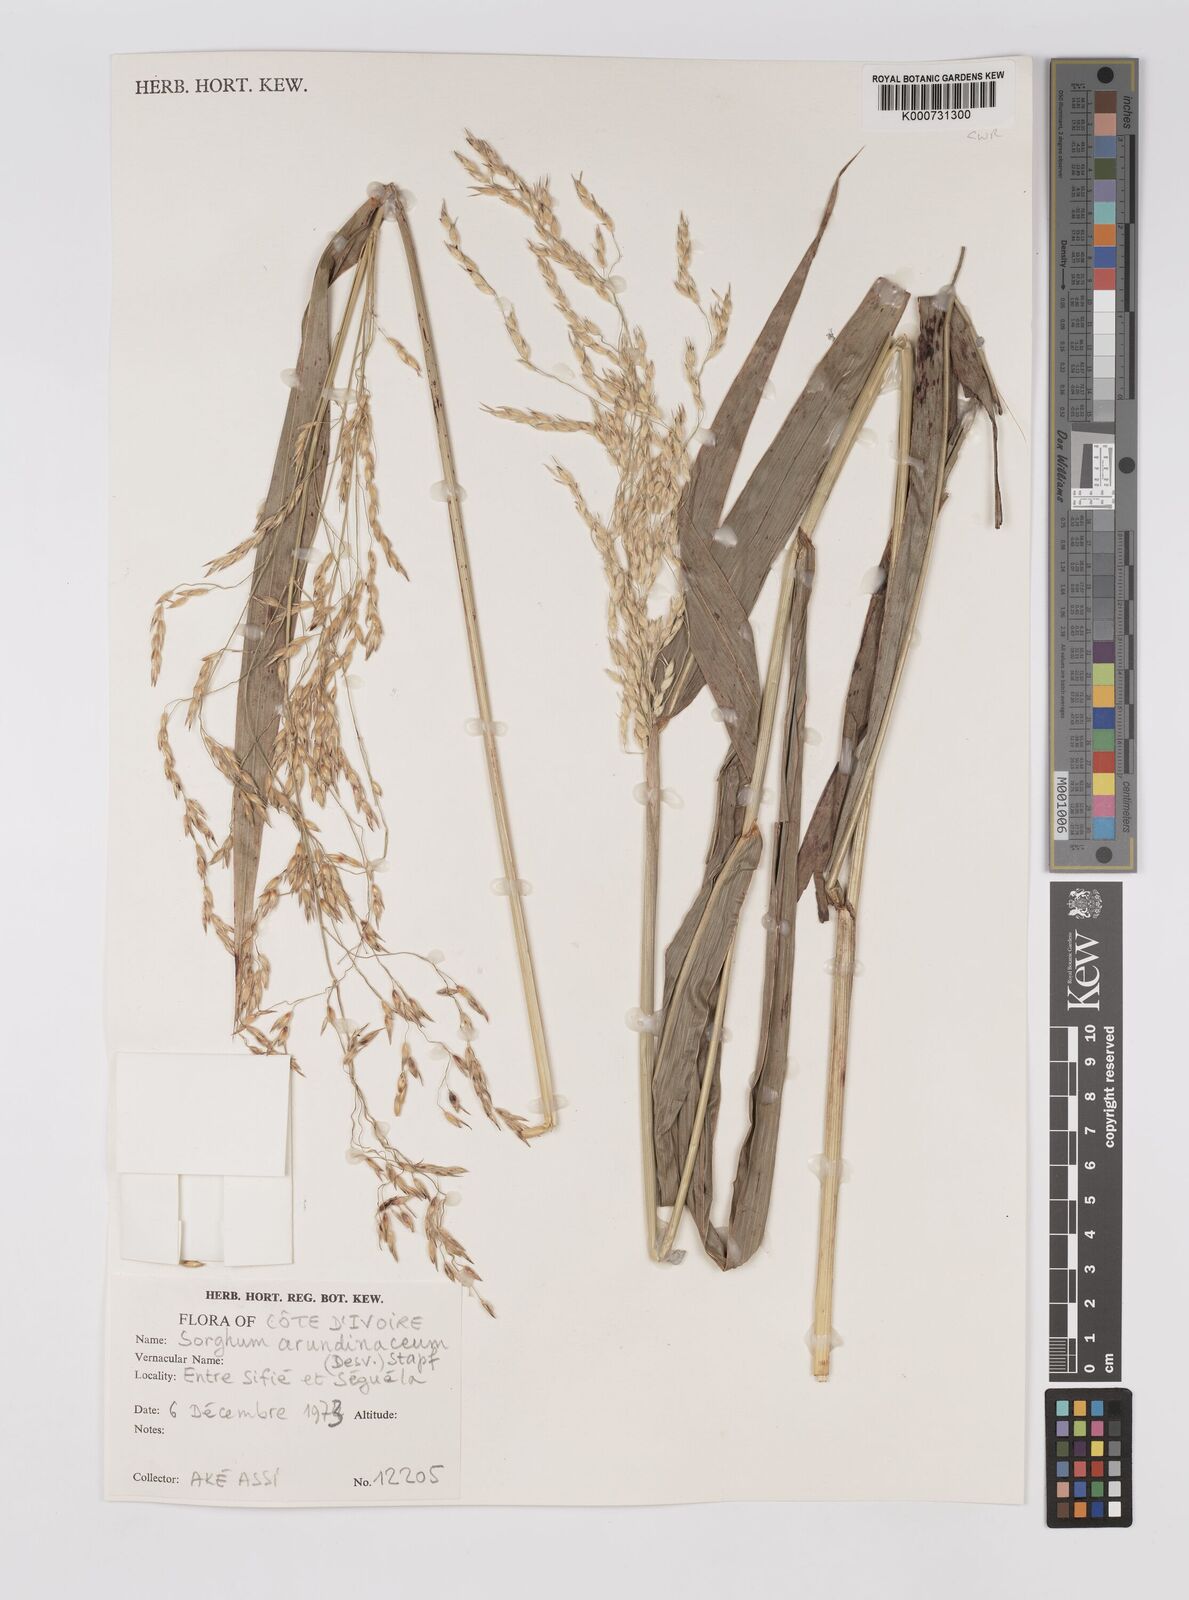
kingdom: Plantae
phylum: Tracheophyta
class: Liliopsida
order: Poales
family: Poaceae
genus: Sorghum
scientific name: Sorghum arundinaceum
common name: Sorghum
